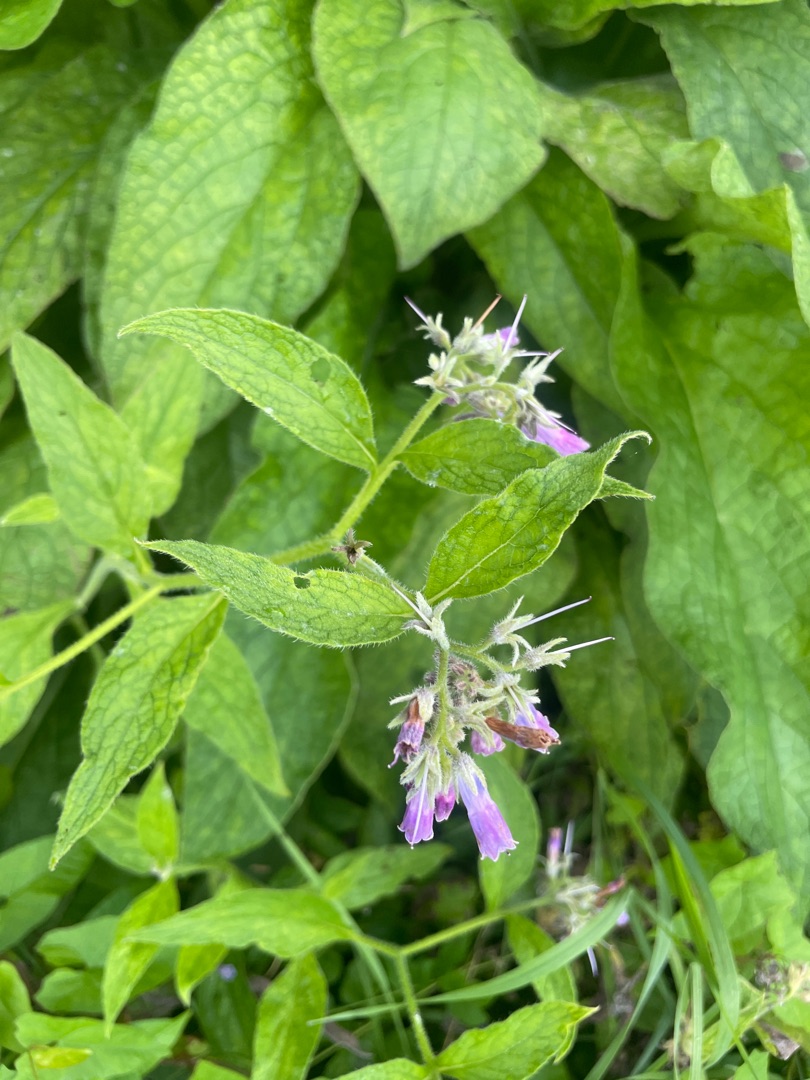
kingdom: Plantae
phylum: Tracheophyta
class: Magnoliopsida
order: Boraginales
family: Boraginaceae
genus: Symphytum
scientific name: Symphytum uplandicum
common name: Foder-kulsukker
